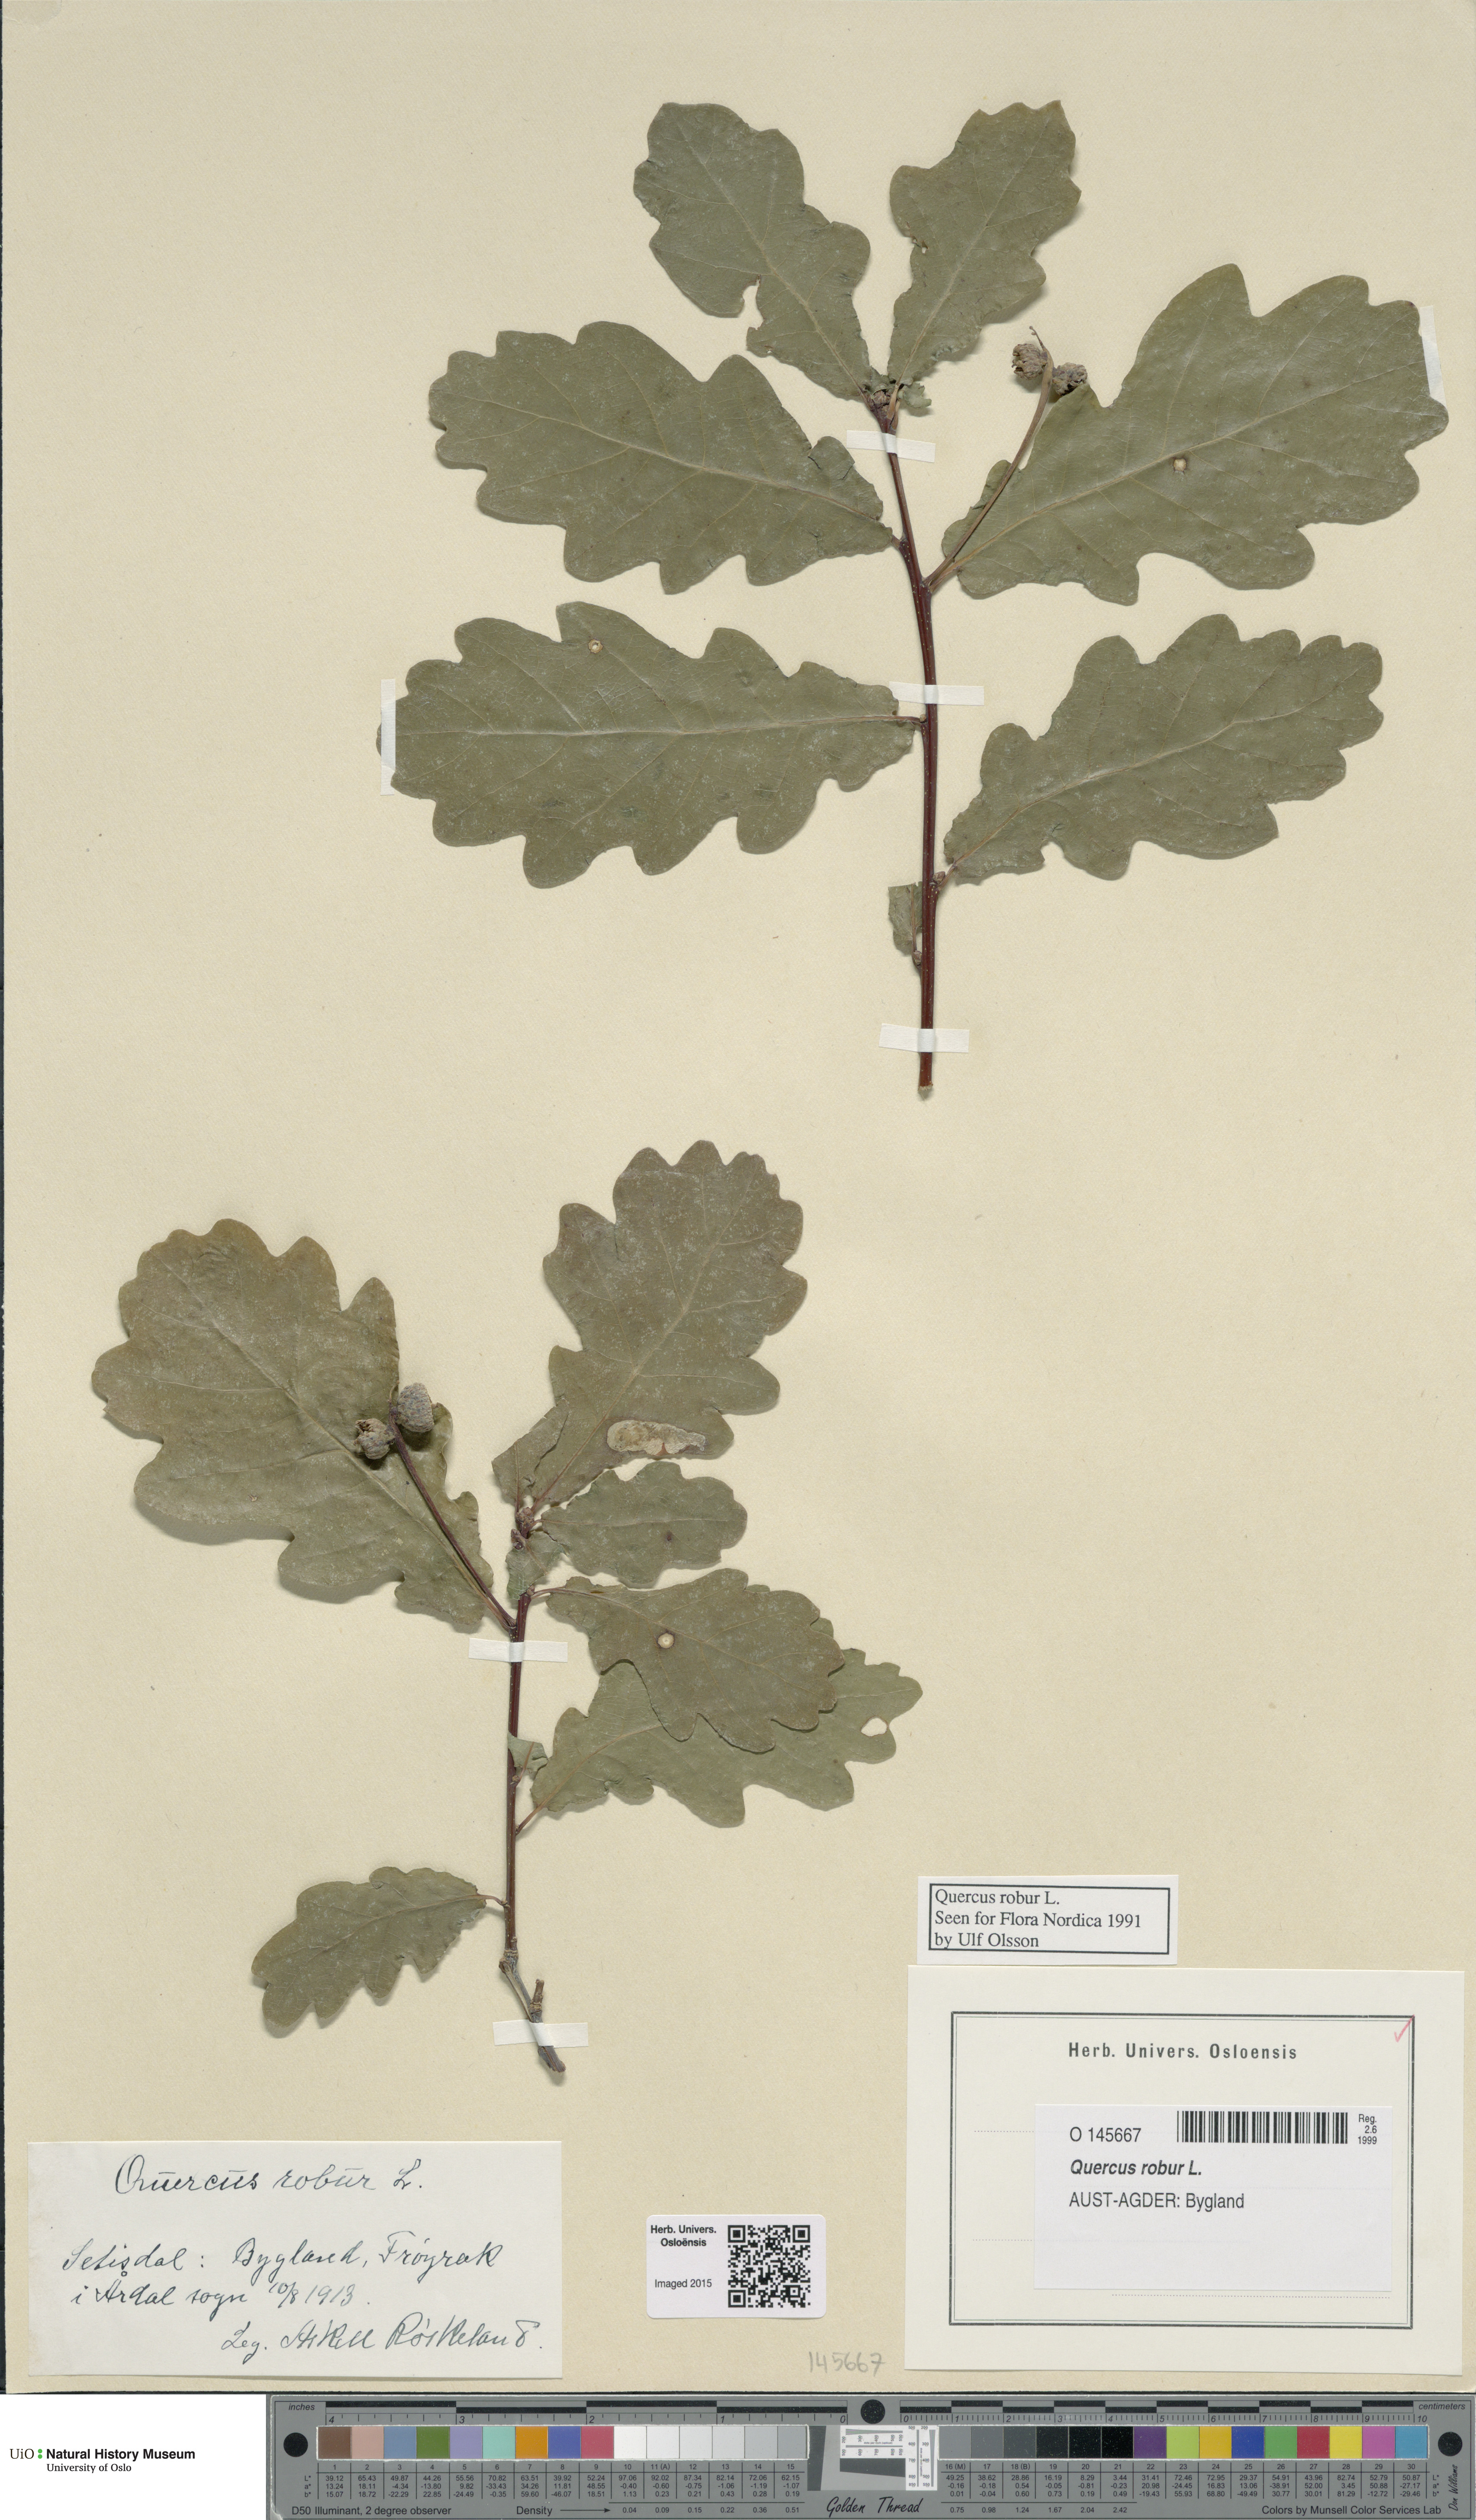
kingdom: Plantae
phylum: Tracheophyta
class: Magnoliopsida
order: Fagales
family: Fagaceae
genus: Quercus
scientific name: Quercus robur
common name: Pedunculate oak
